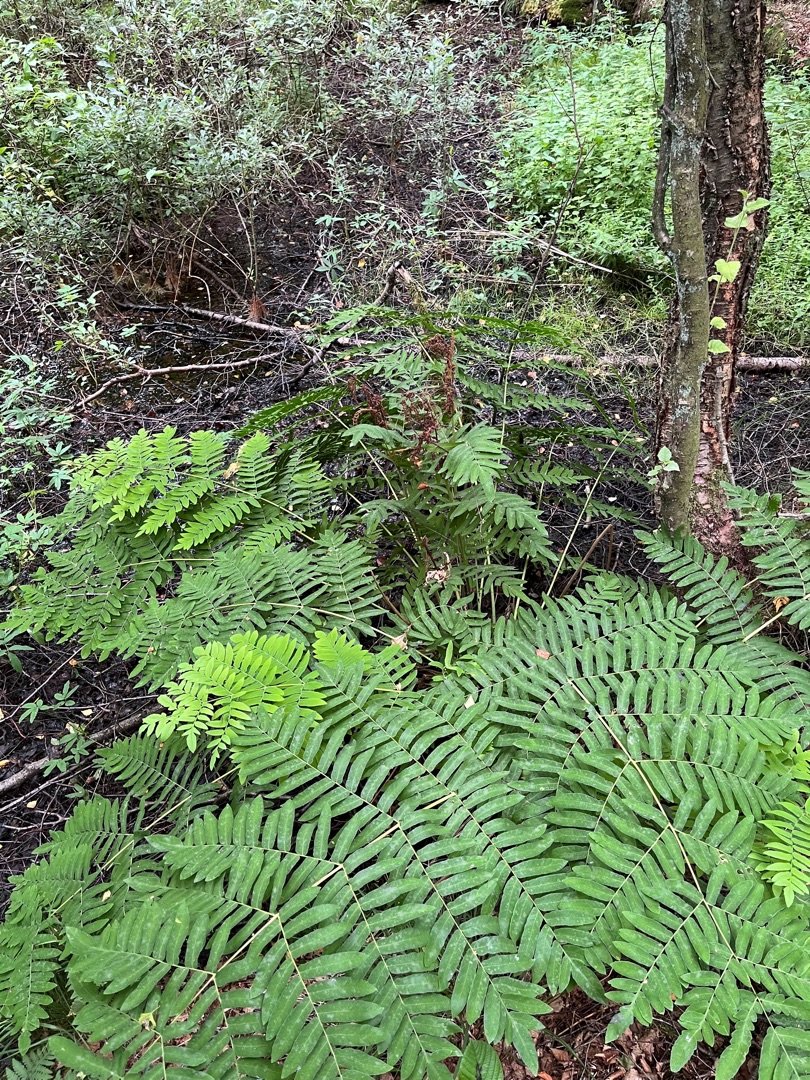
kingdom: Plantae
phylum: Tracheophyta
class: Polypodiopsida
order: Osmundales
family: Osmundaceae
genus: Osmunda
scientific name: Osmunda regalis
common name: Kongebregne
